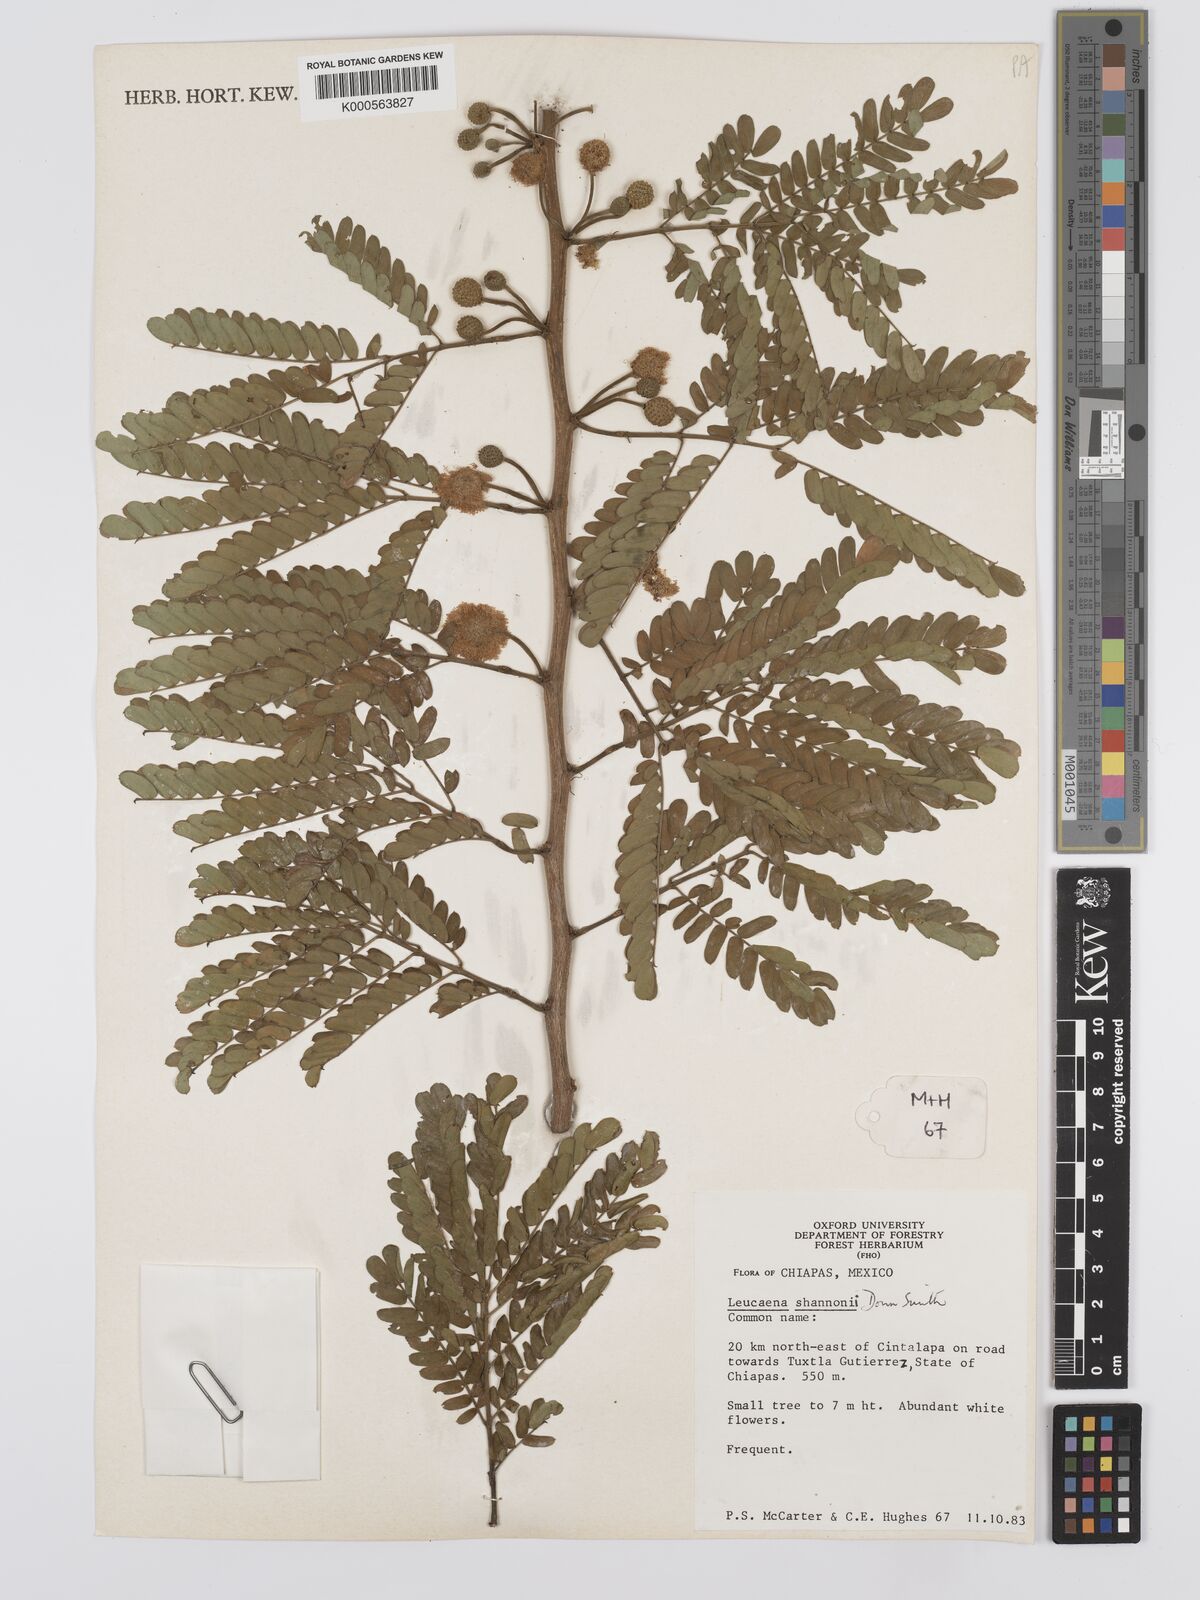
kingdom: Plantae
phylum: Tracheophyta
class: Magnoliopsida
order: Fabales
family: Fabaceae
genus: Leucaena
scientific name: Leucaena shannonii
